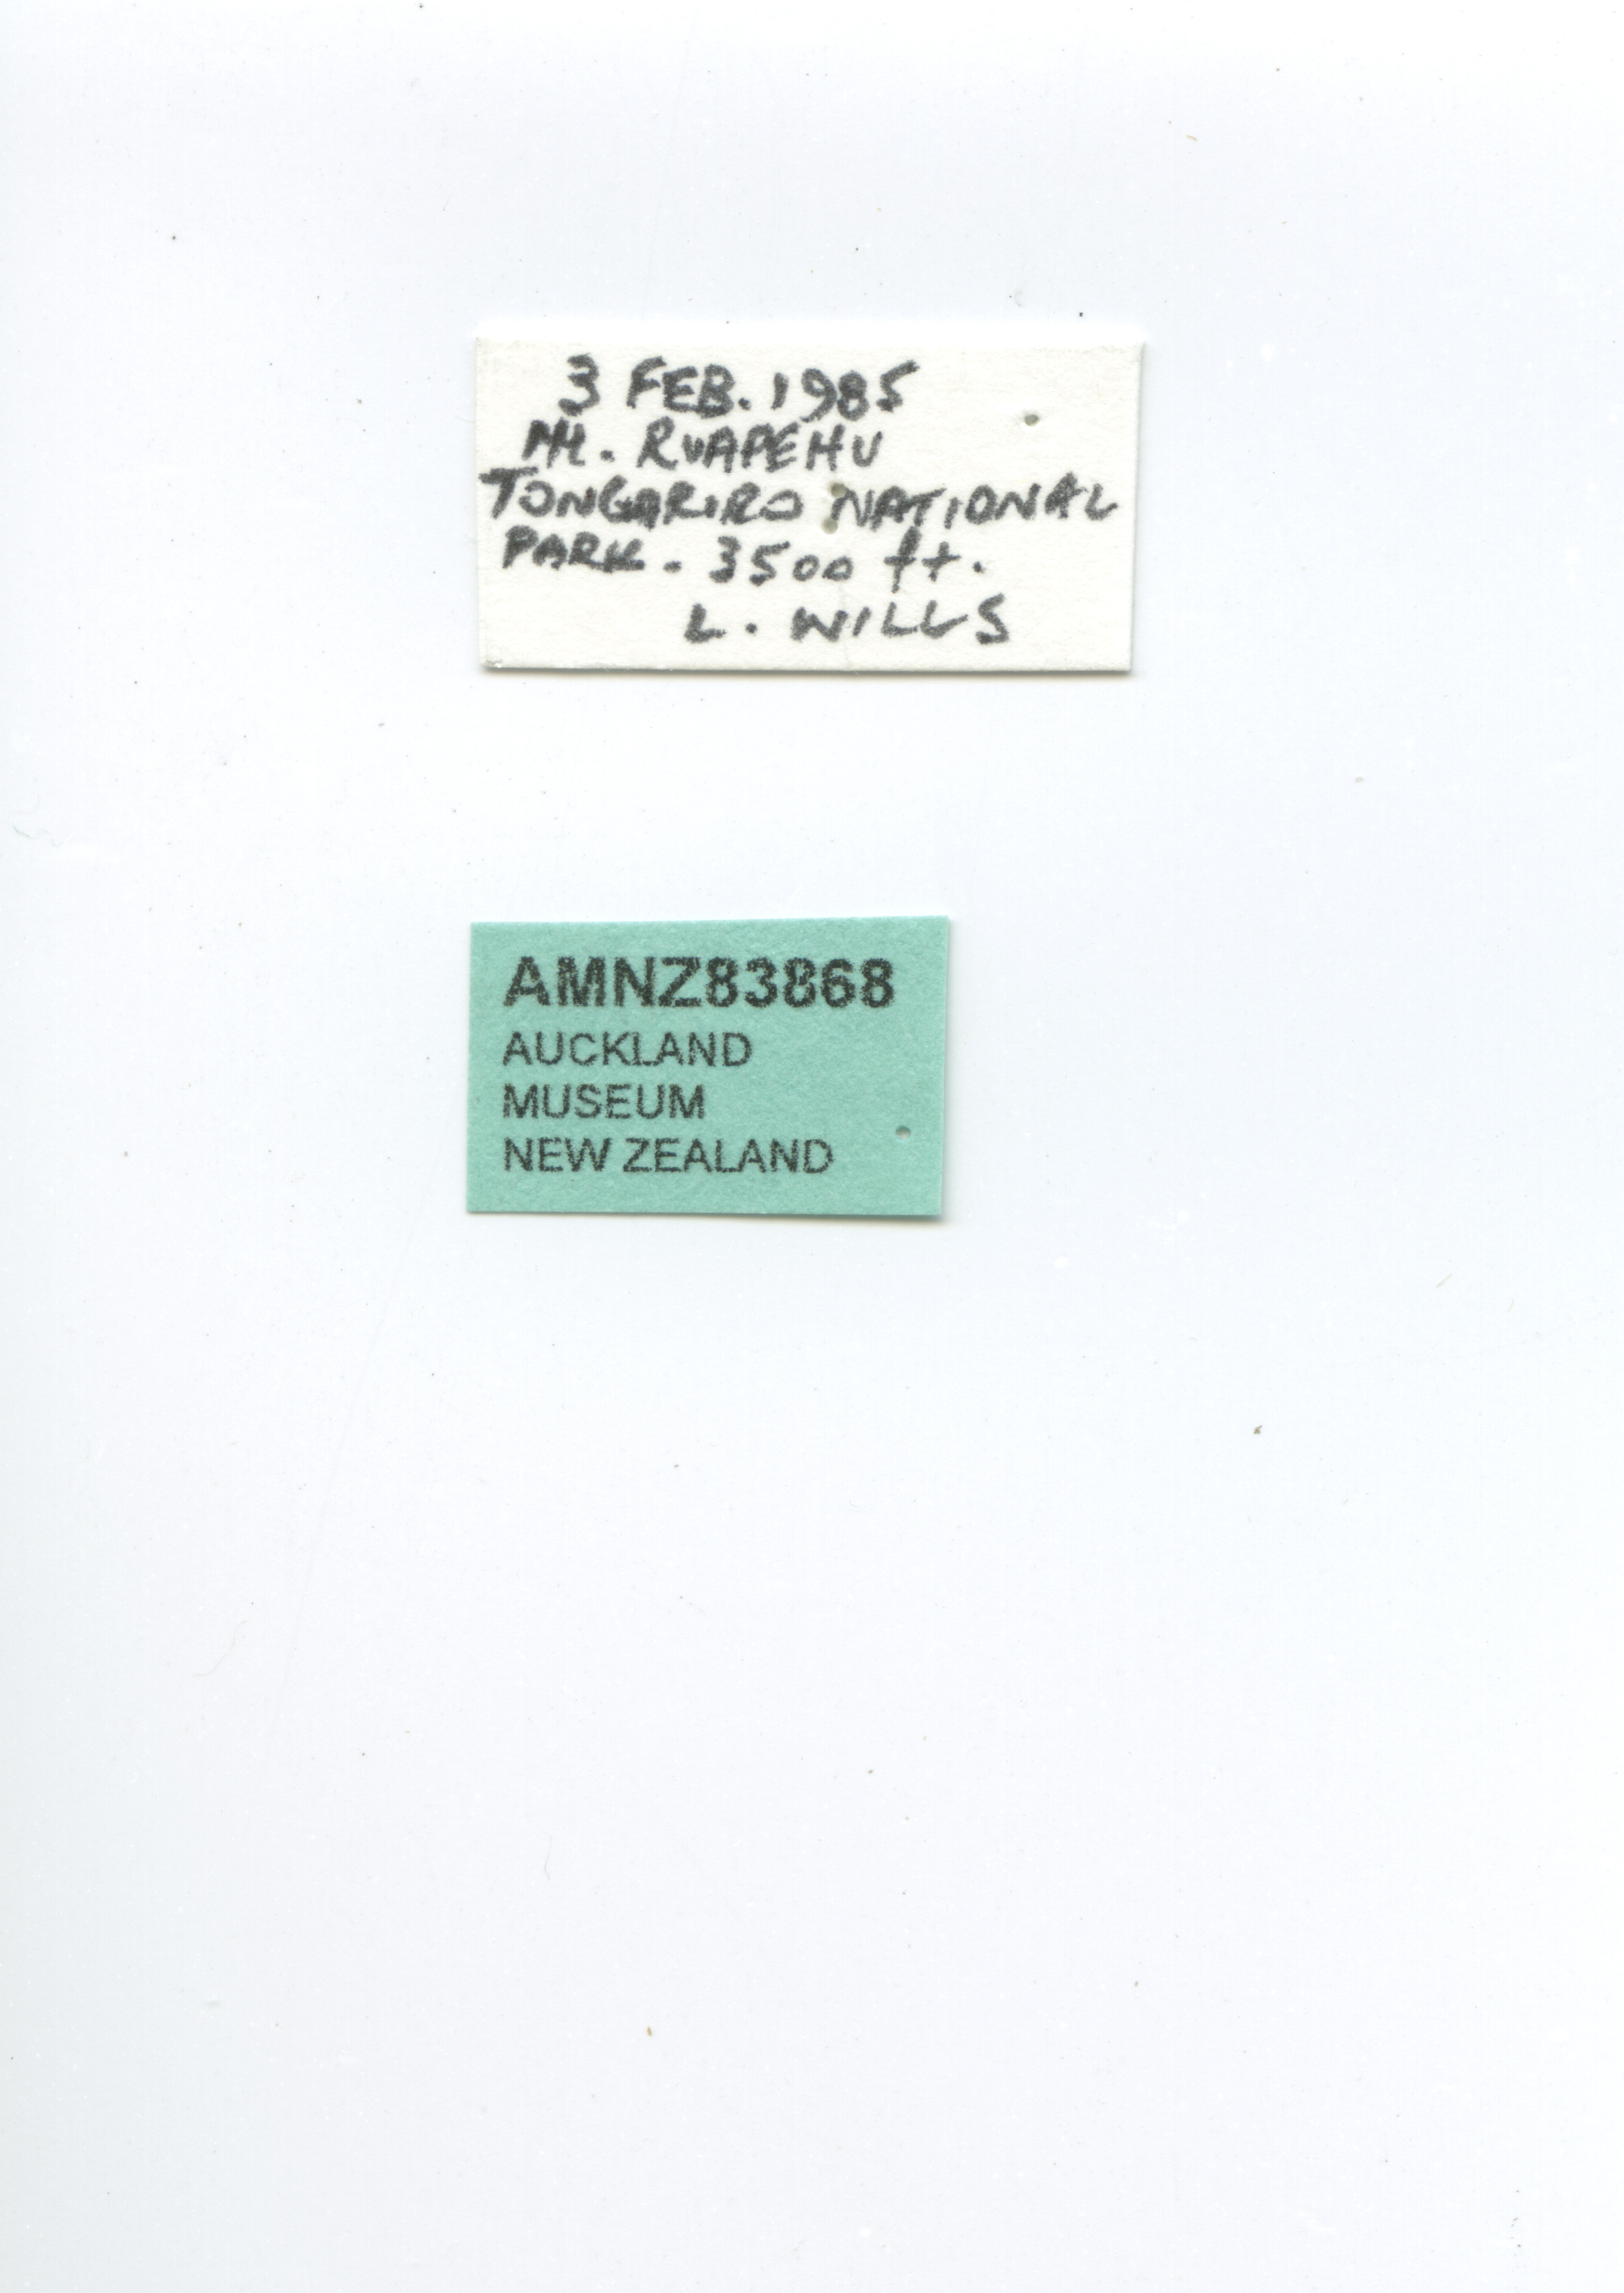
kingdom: Animalia
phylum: Arthropoda
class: Insecta
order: Lepidoptera
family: Nymphalidae
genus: Vanessa
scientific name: Vanessa gonerilla
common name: New zealand red admiral
